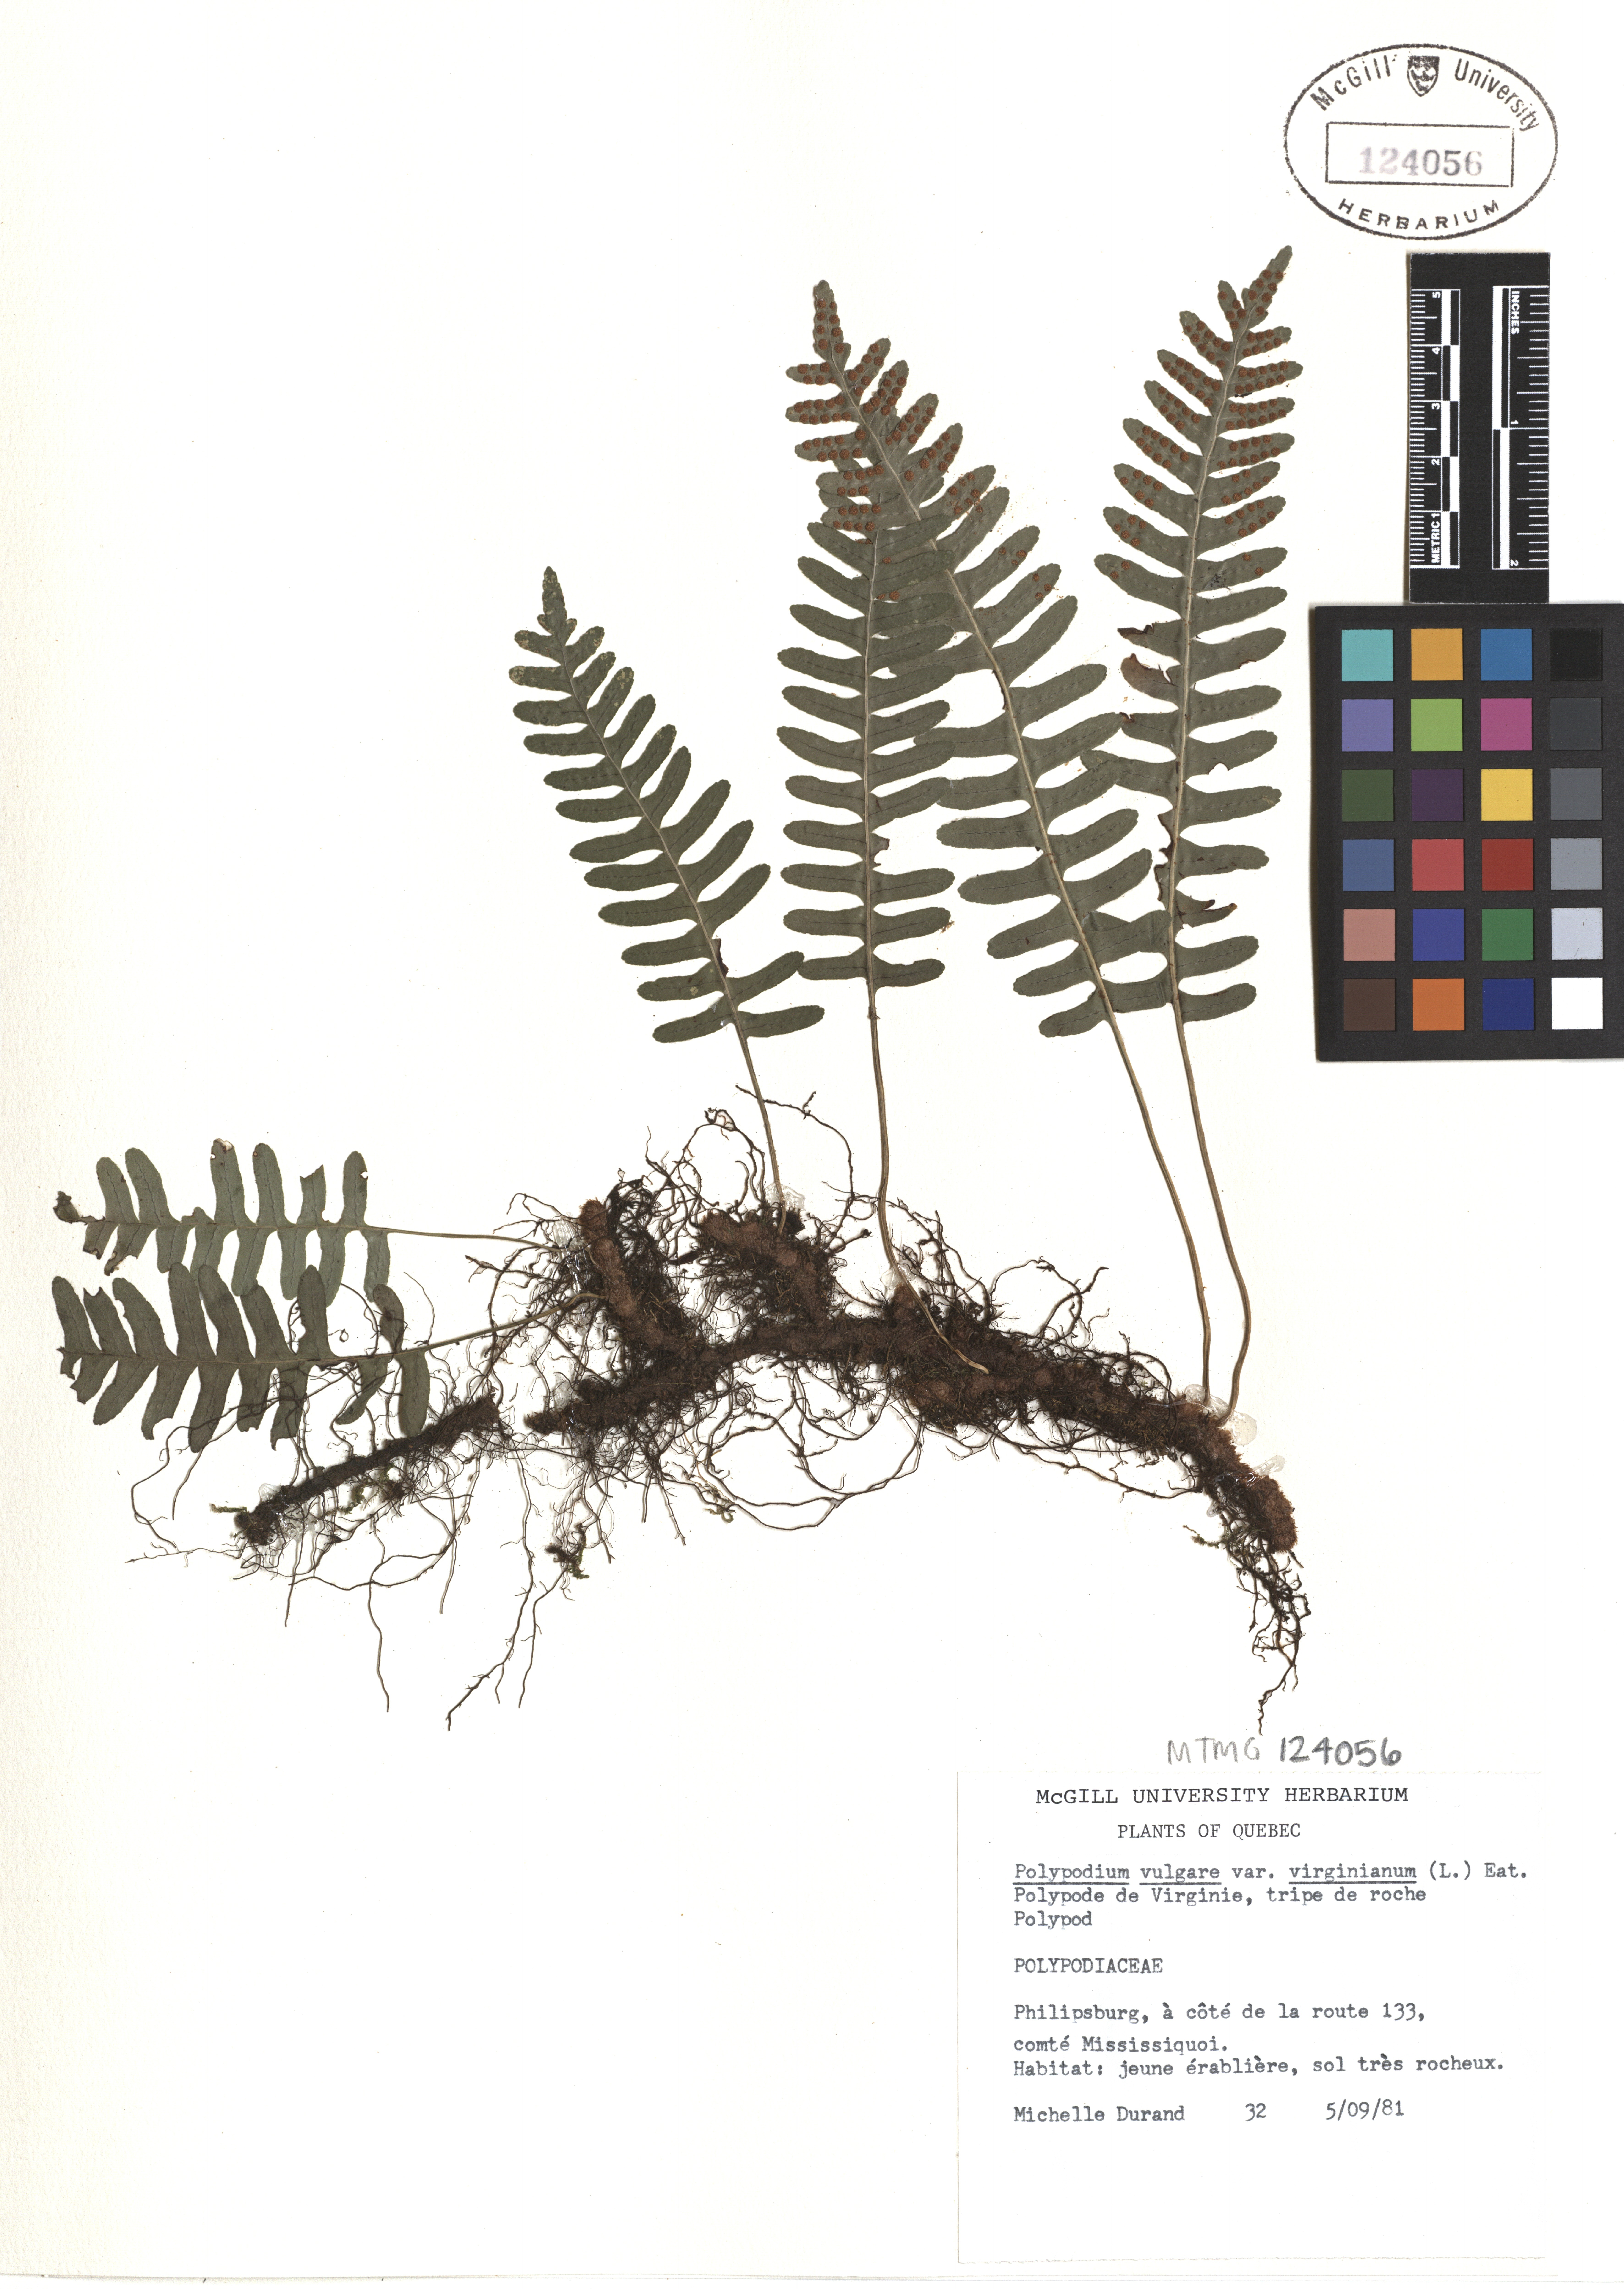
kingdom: Plantae
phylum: Tracheophyta
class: Polypodiopsida
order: Polypodiales
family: Polypodiaceae
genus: Polypodium
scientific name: Polypodium virginianum
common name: American wall fern
